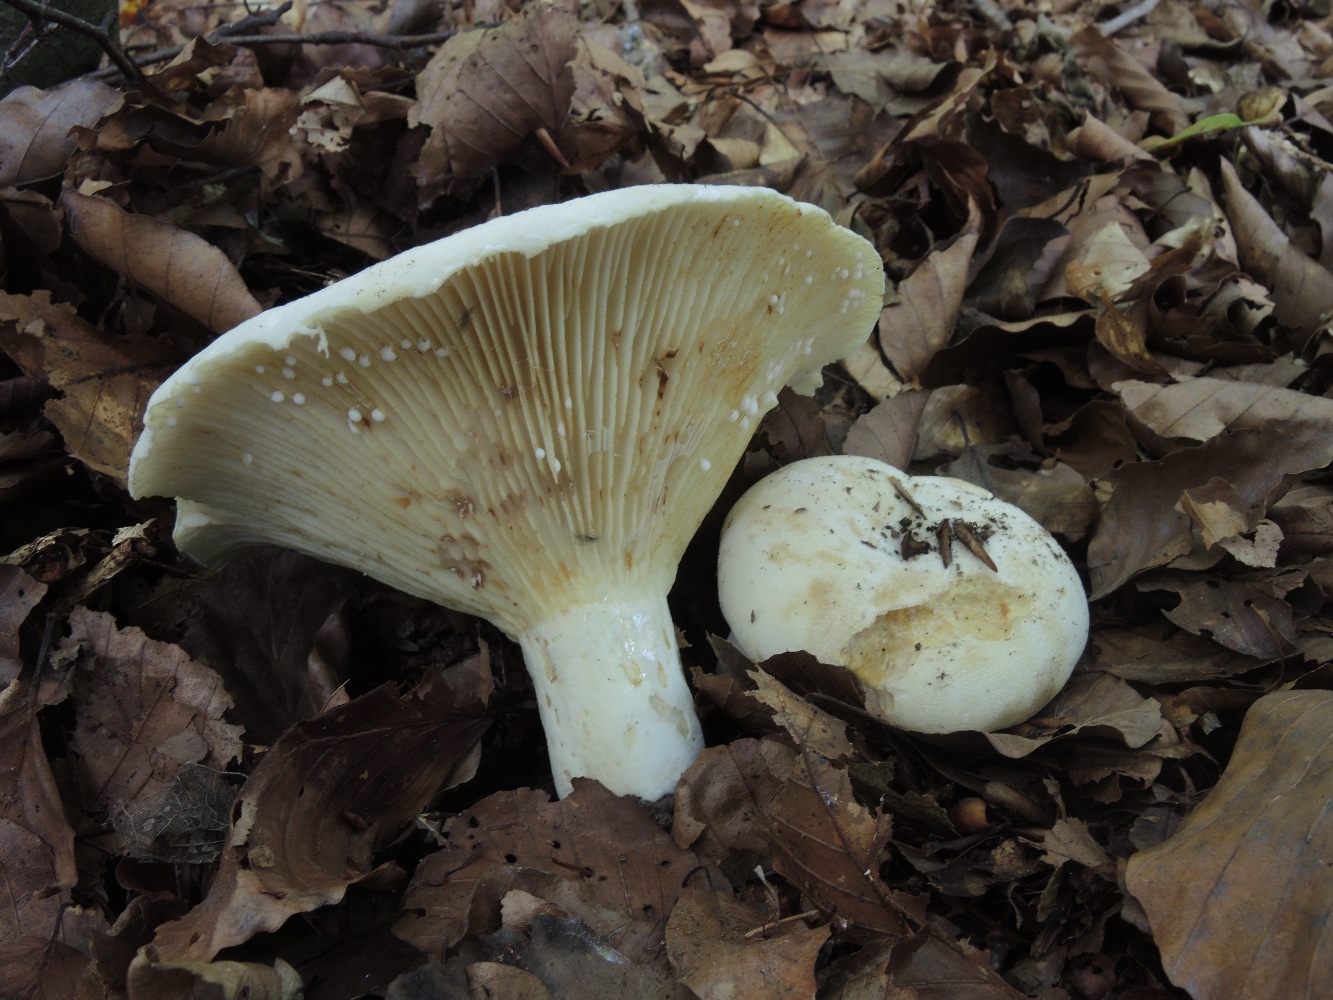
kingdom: Fungi
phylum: Basidiomycota
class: Agaricomycetes
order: Russulales
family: Russulaceae
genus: Lactifluus
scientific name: Lactifluus vellereus
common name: hvidfiltet mælkehat
